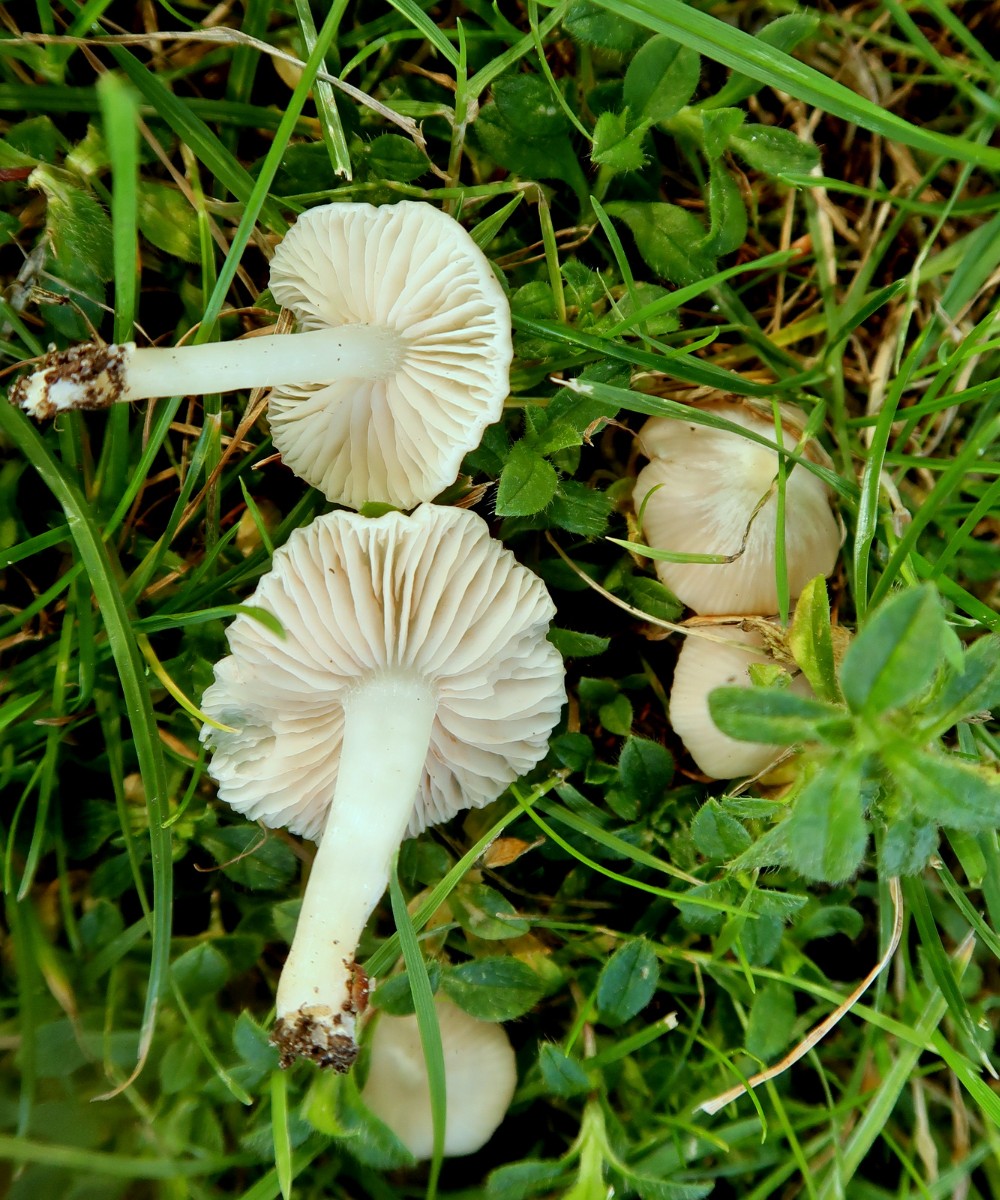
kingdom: Fungi
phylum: Basidiomycota
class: Agaricomycetes
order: Agaricales
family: Entolomataceae
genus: Entoloma
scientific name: Entoloma sericellum
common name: silkehvid rødblad
